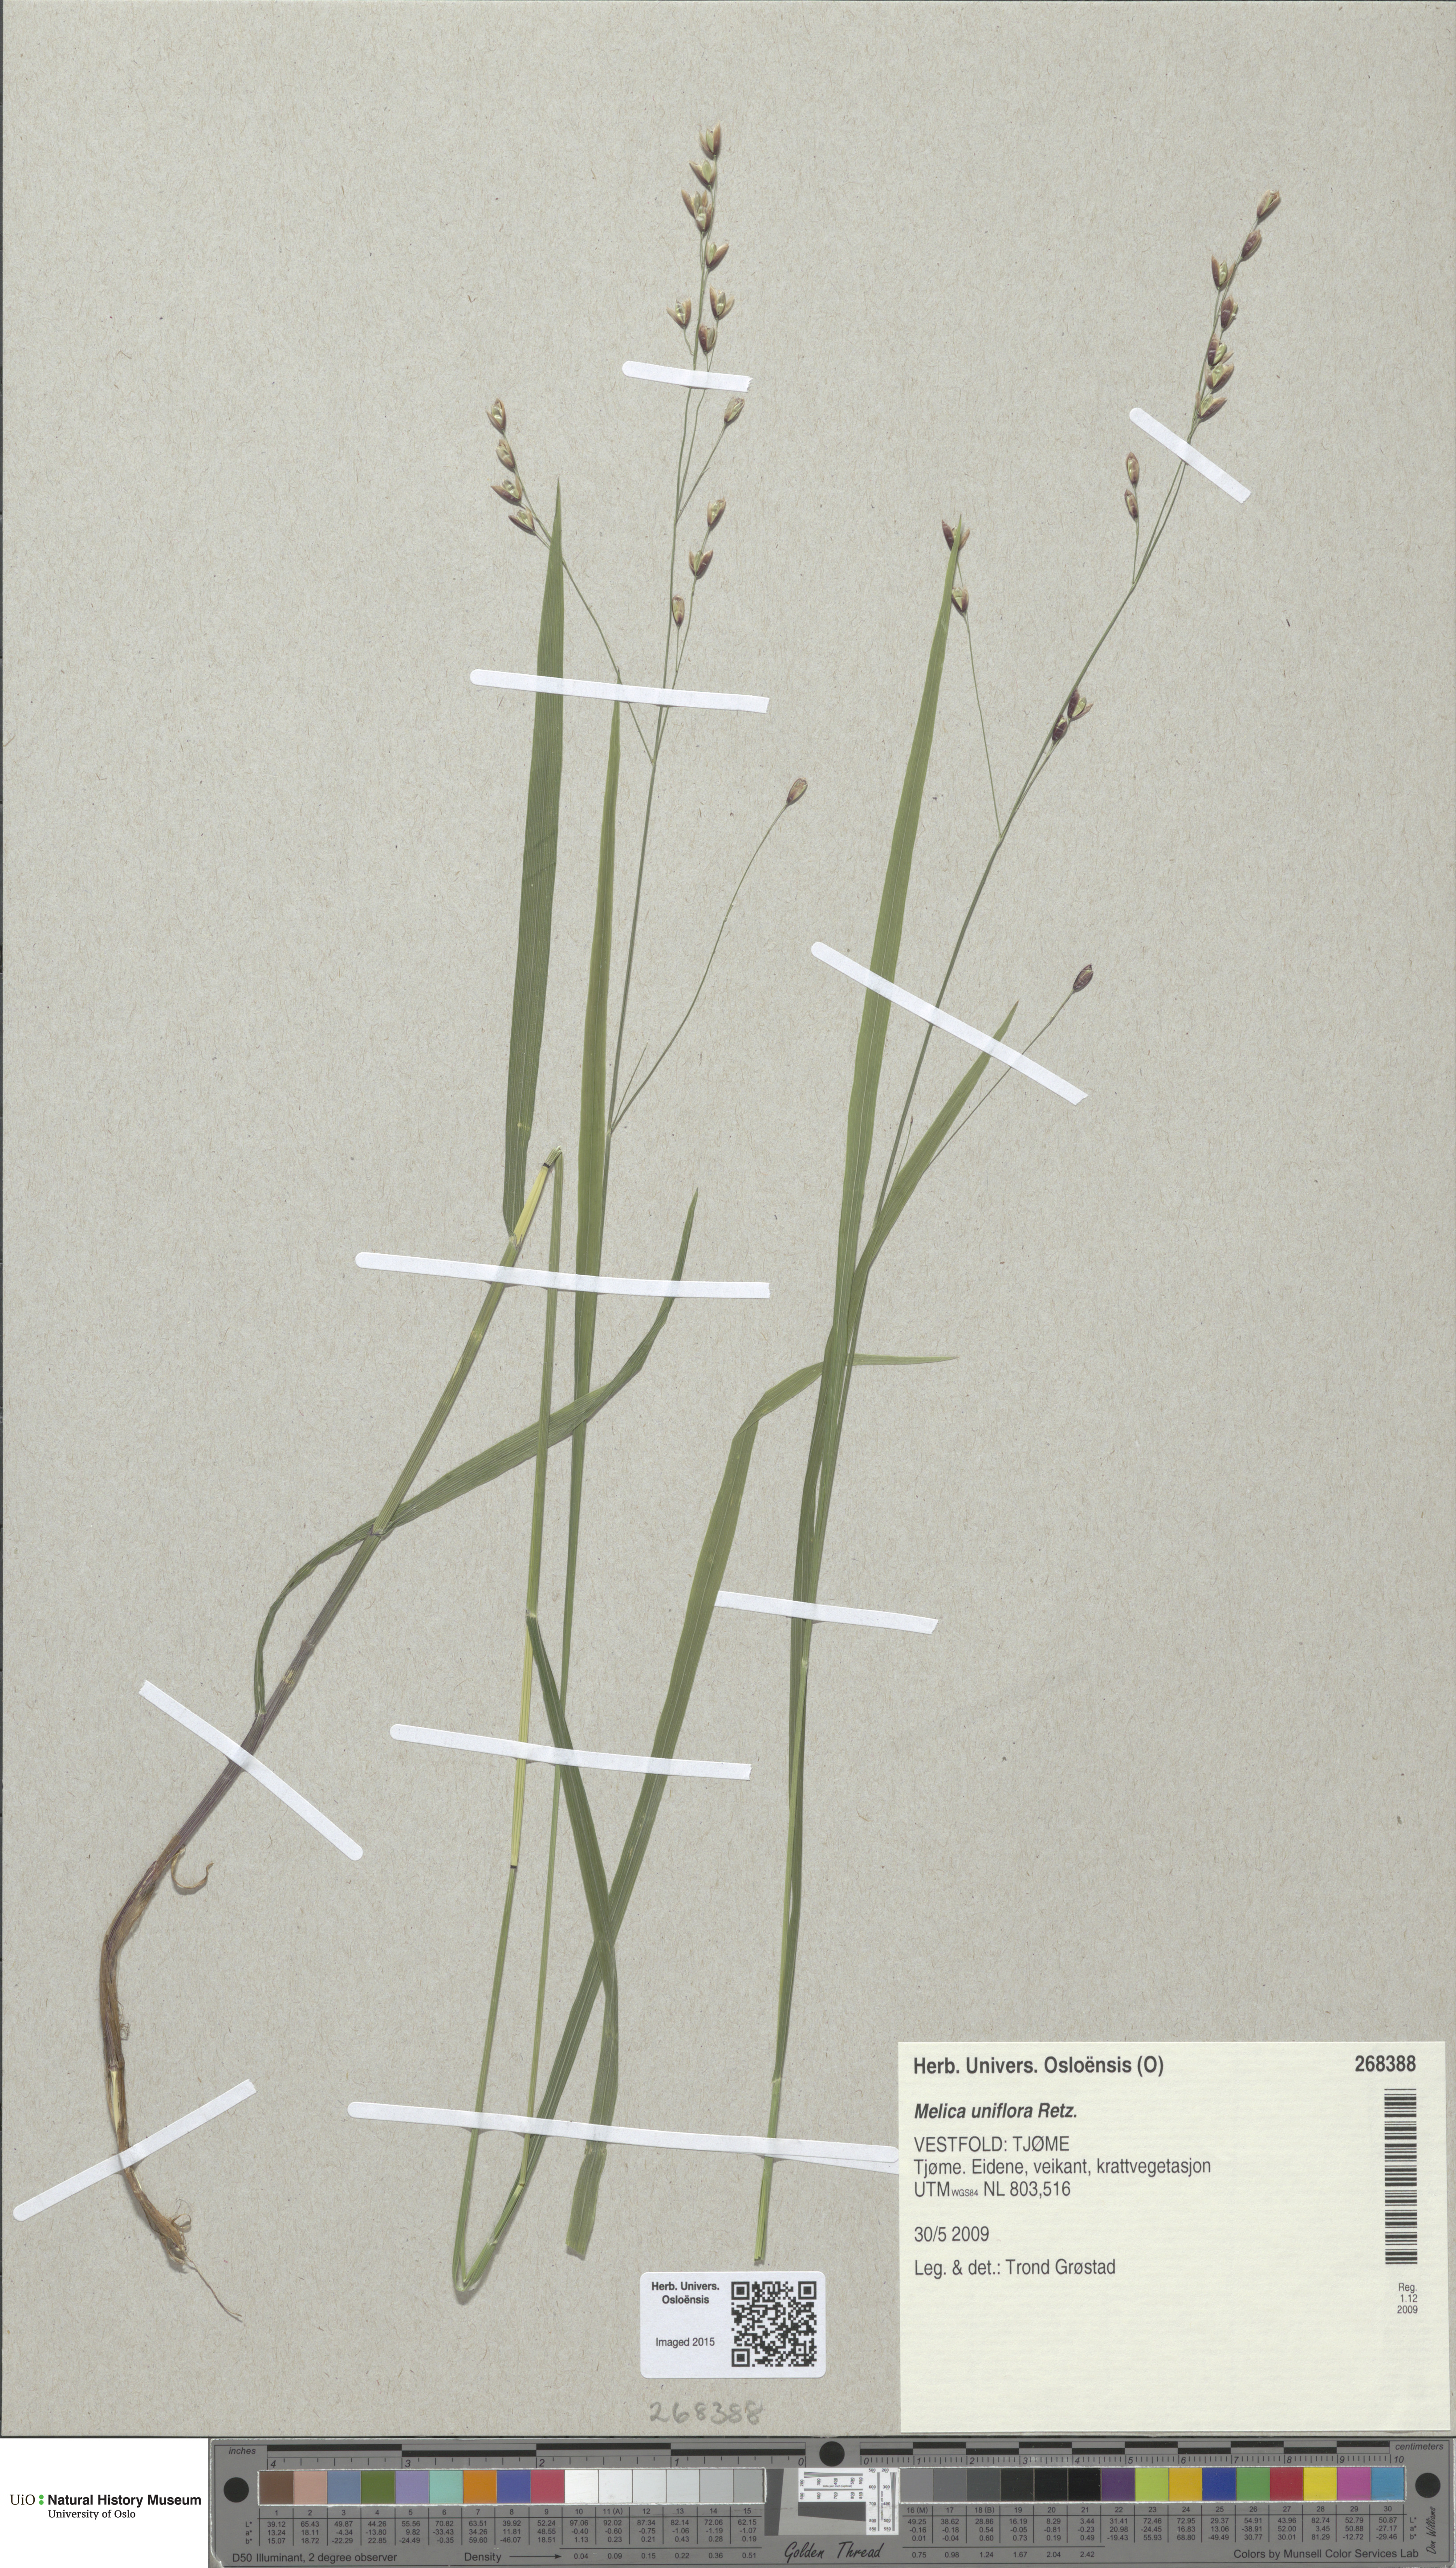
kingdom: Plantae
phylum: Tracheophyta
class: Liliopsida
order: Poales
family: Poaceae
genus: Melica
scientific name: Melica uniflora
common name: Wood melick
